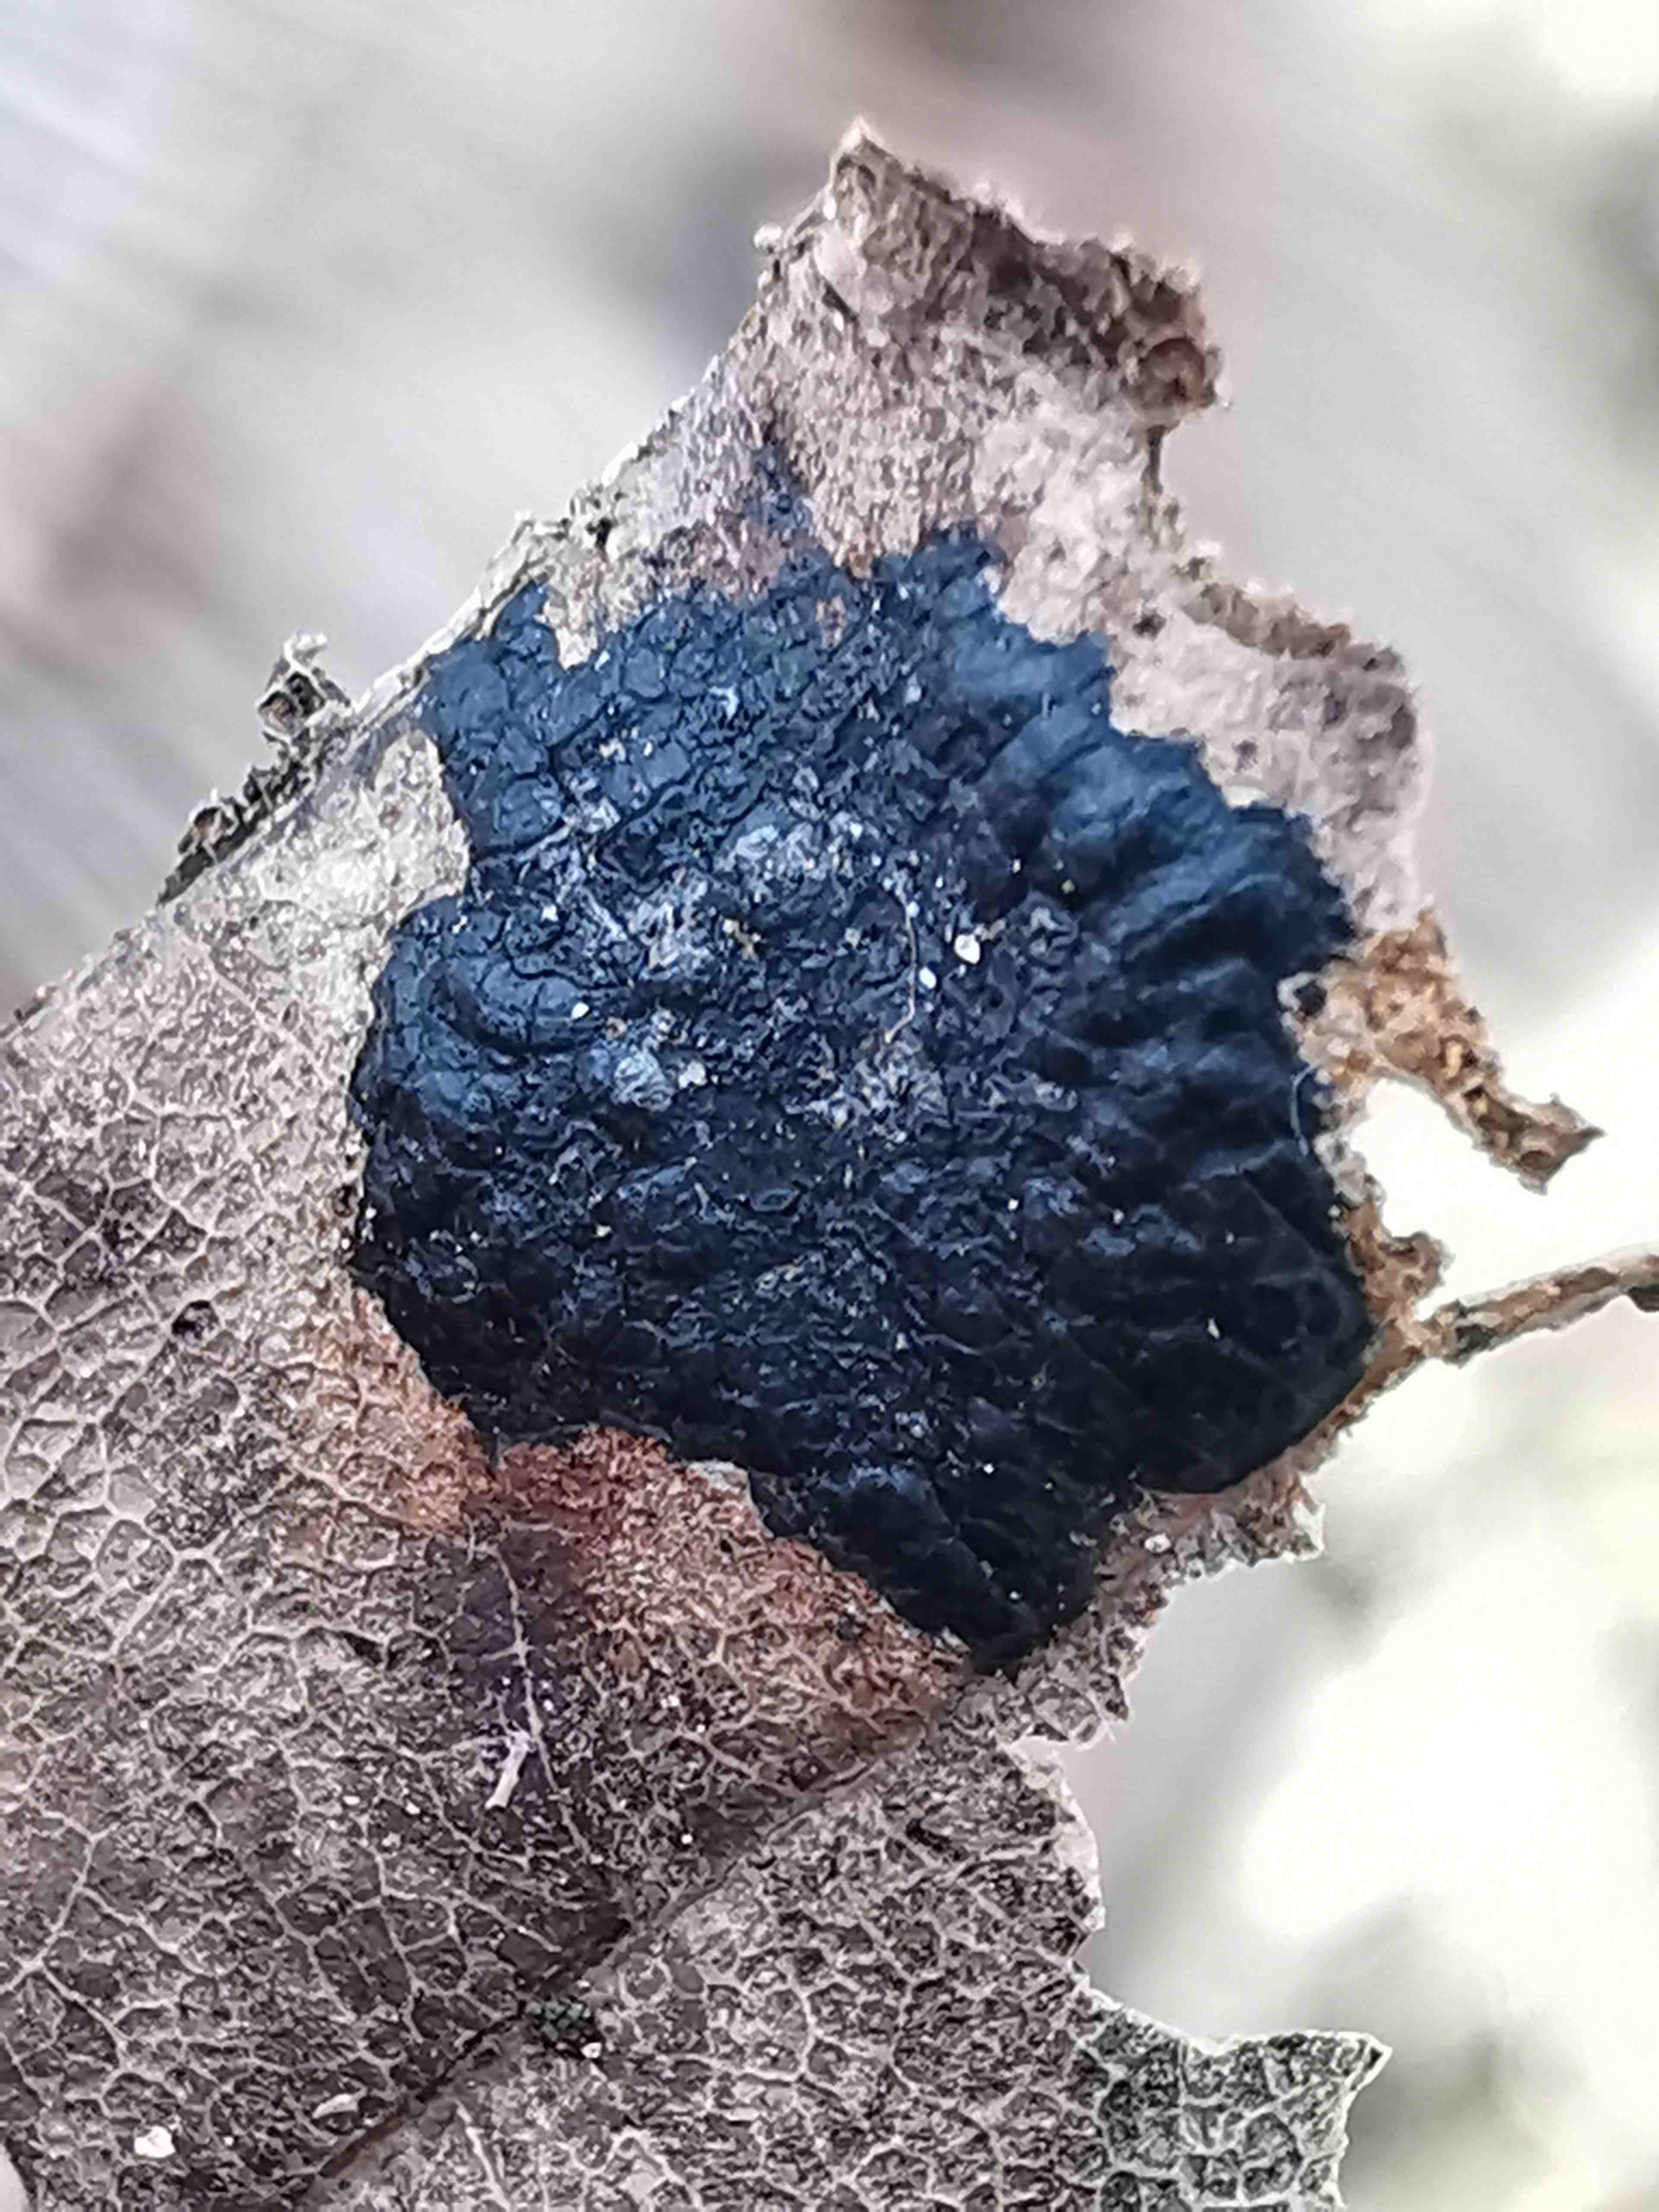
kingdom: Fungi
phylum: Ascomycota
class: Leotiomycetes
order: Rhytismatales
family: Rhytismataceae
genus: Rhytisma
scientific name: Rhytisma acerinum
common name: ahorn-rynkeplet
